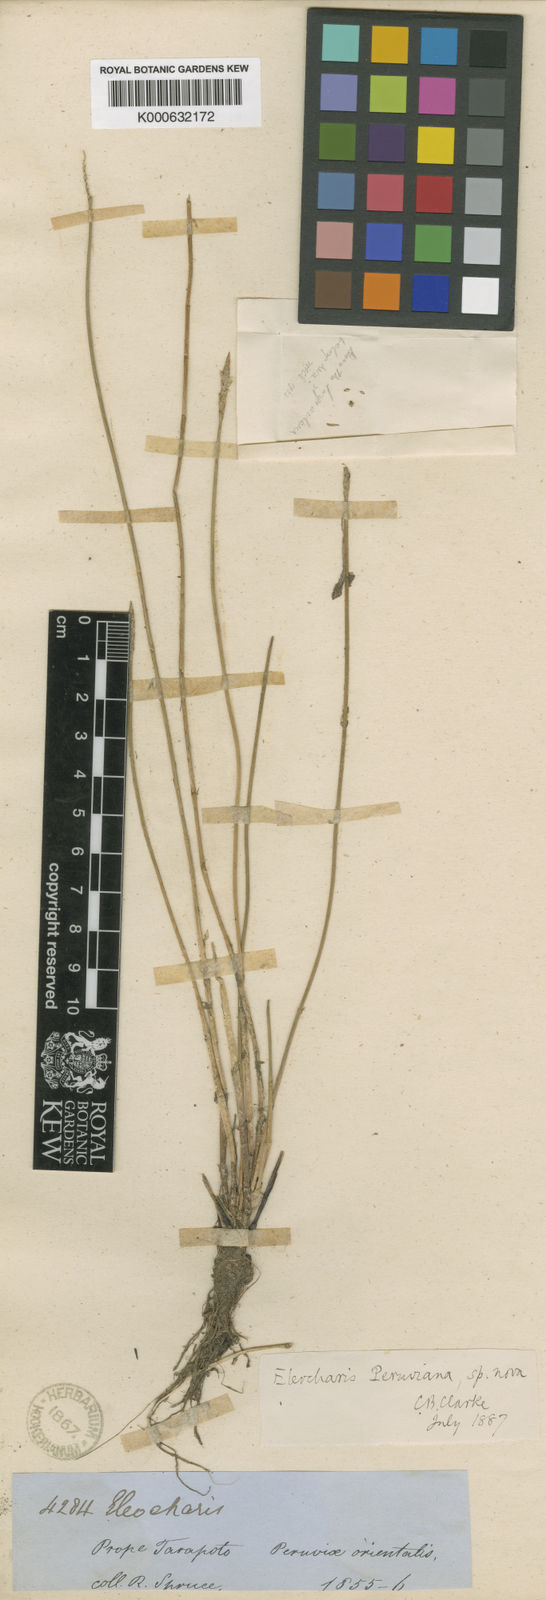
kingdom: Plantae
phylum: Tracheophyta
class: Liliopsida
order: Poales
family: Cyperaceae
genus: Eleocharis
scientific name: Eleocharis
